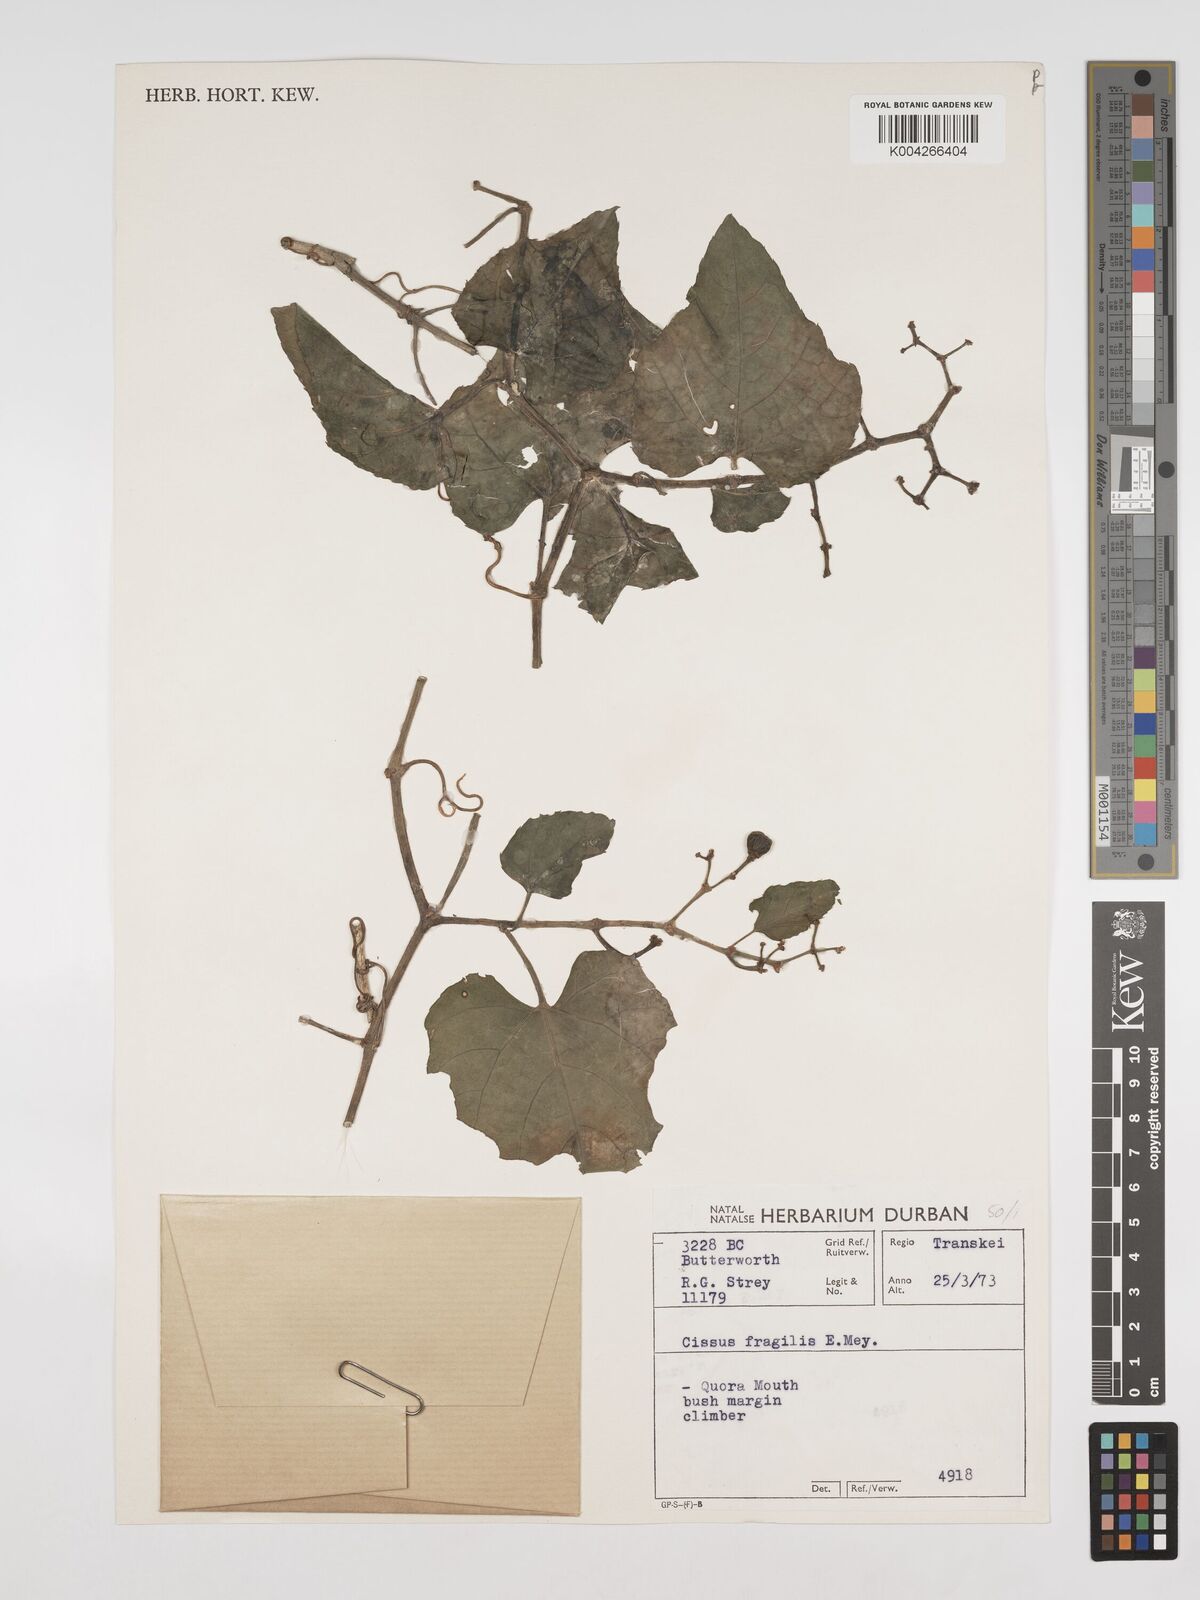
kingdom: Plantae
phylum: Tracheophyta
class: Magnoliopsida
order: Vitales
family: Vitaceae
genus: Cissus
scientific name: Cissus fragilis
